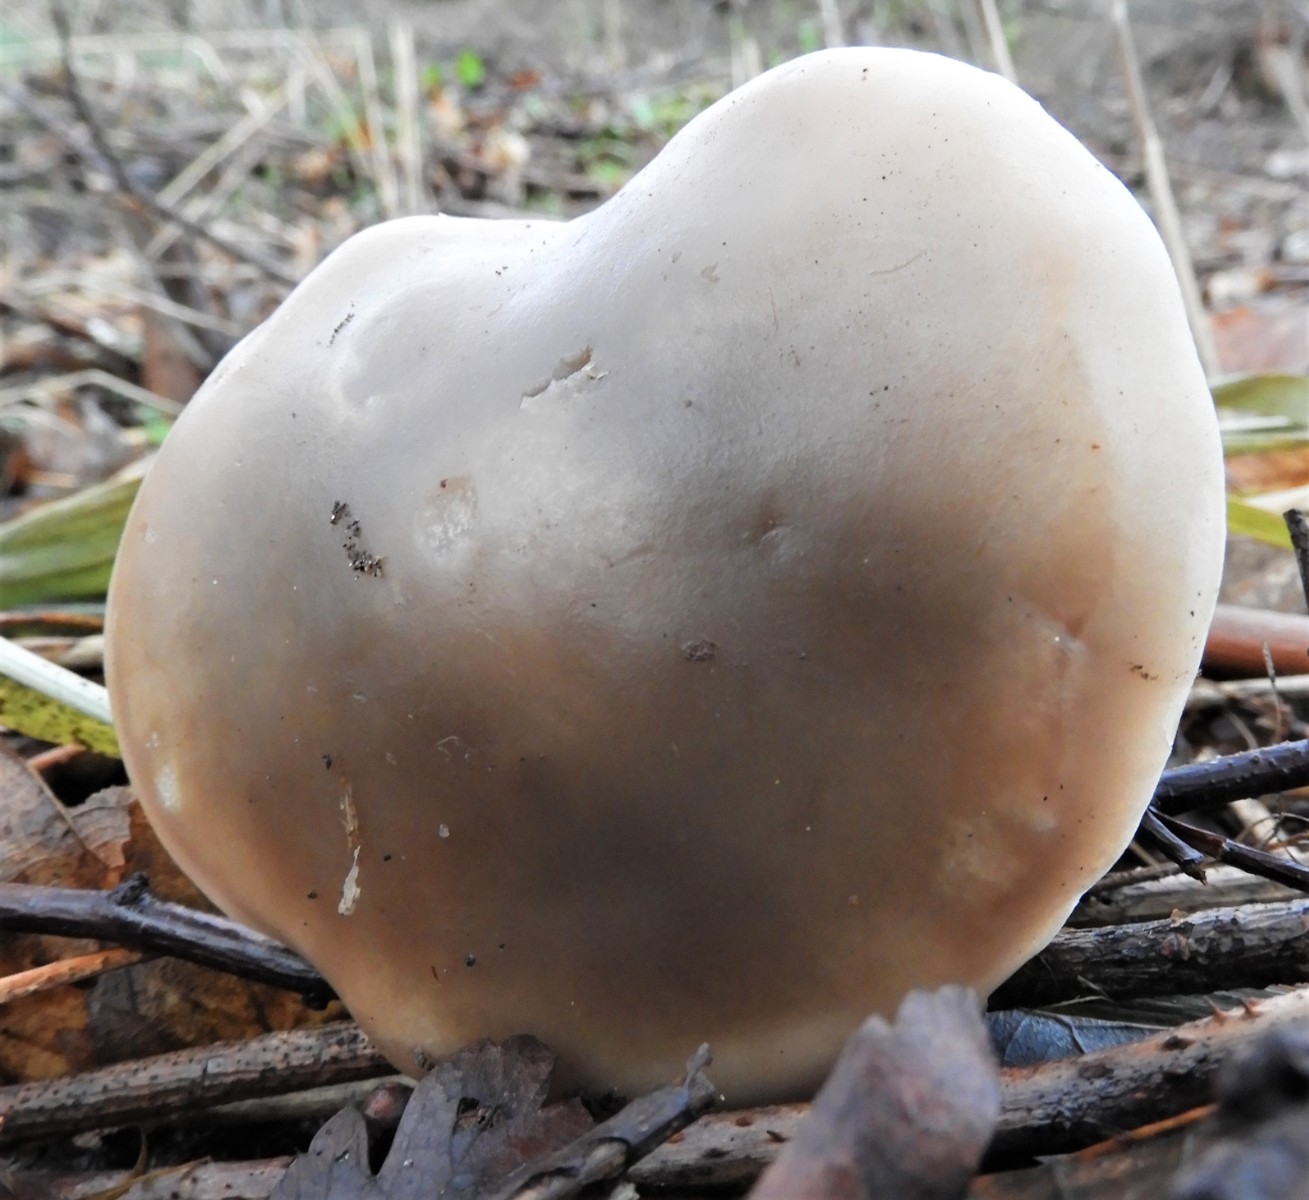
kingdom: Fungi
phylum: Basidiomycota
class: Agaricomycetes
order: Agaricales
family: Tricholomataceae
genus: Lepista
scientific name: Lepista personata
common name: bleg hekseringshat
